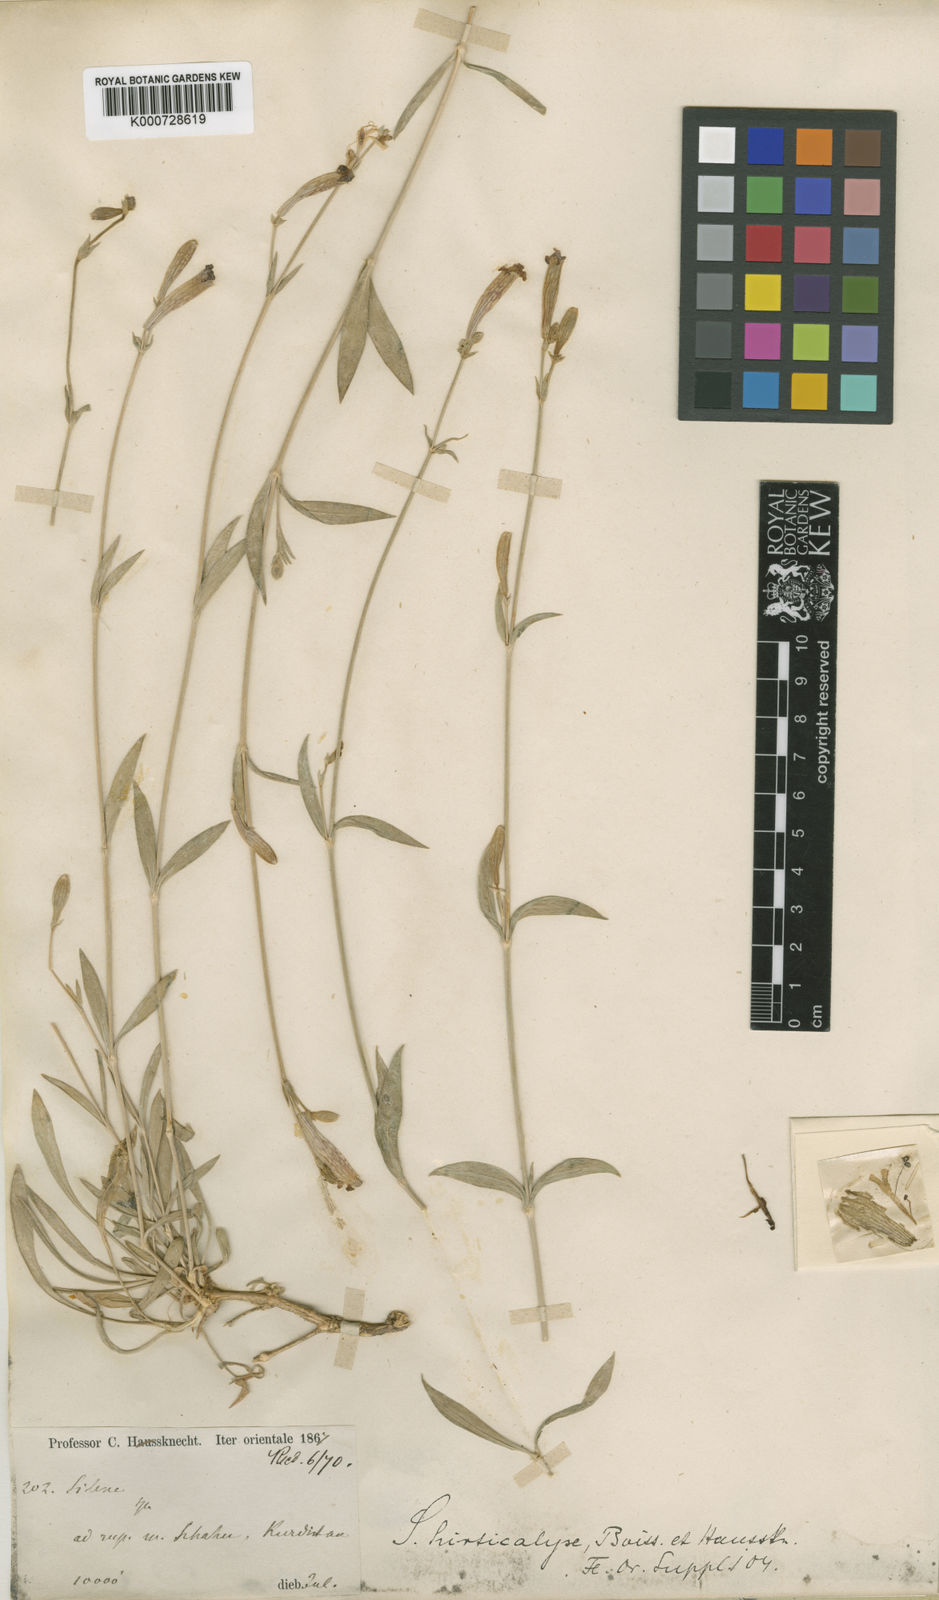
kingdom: Plantae
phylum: Tracheophyta
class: Magnoliopsida
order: Caryophyllales
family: Caryophyllaceae
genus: Silene
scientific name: Silene hirticalyx
